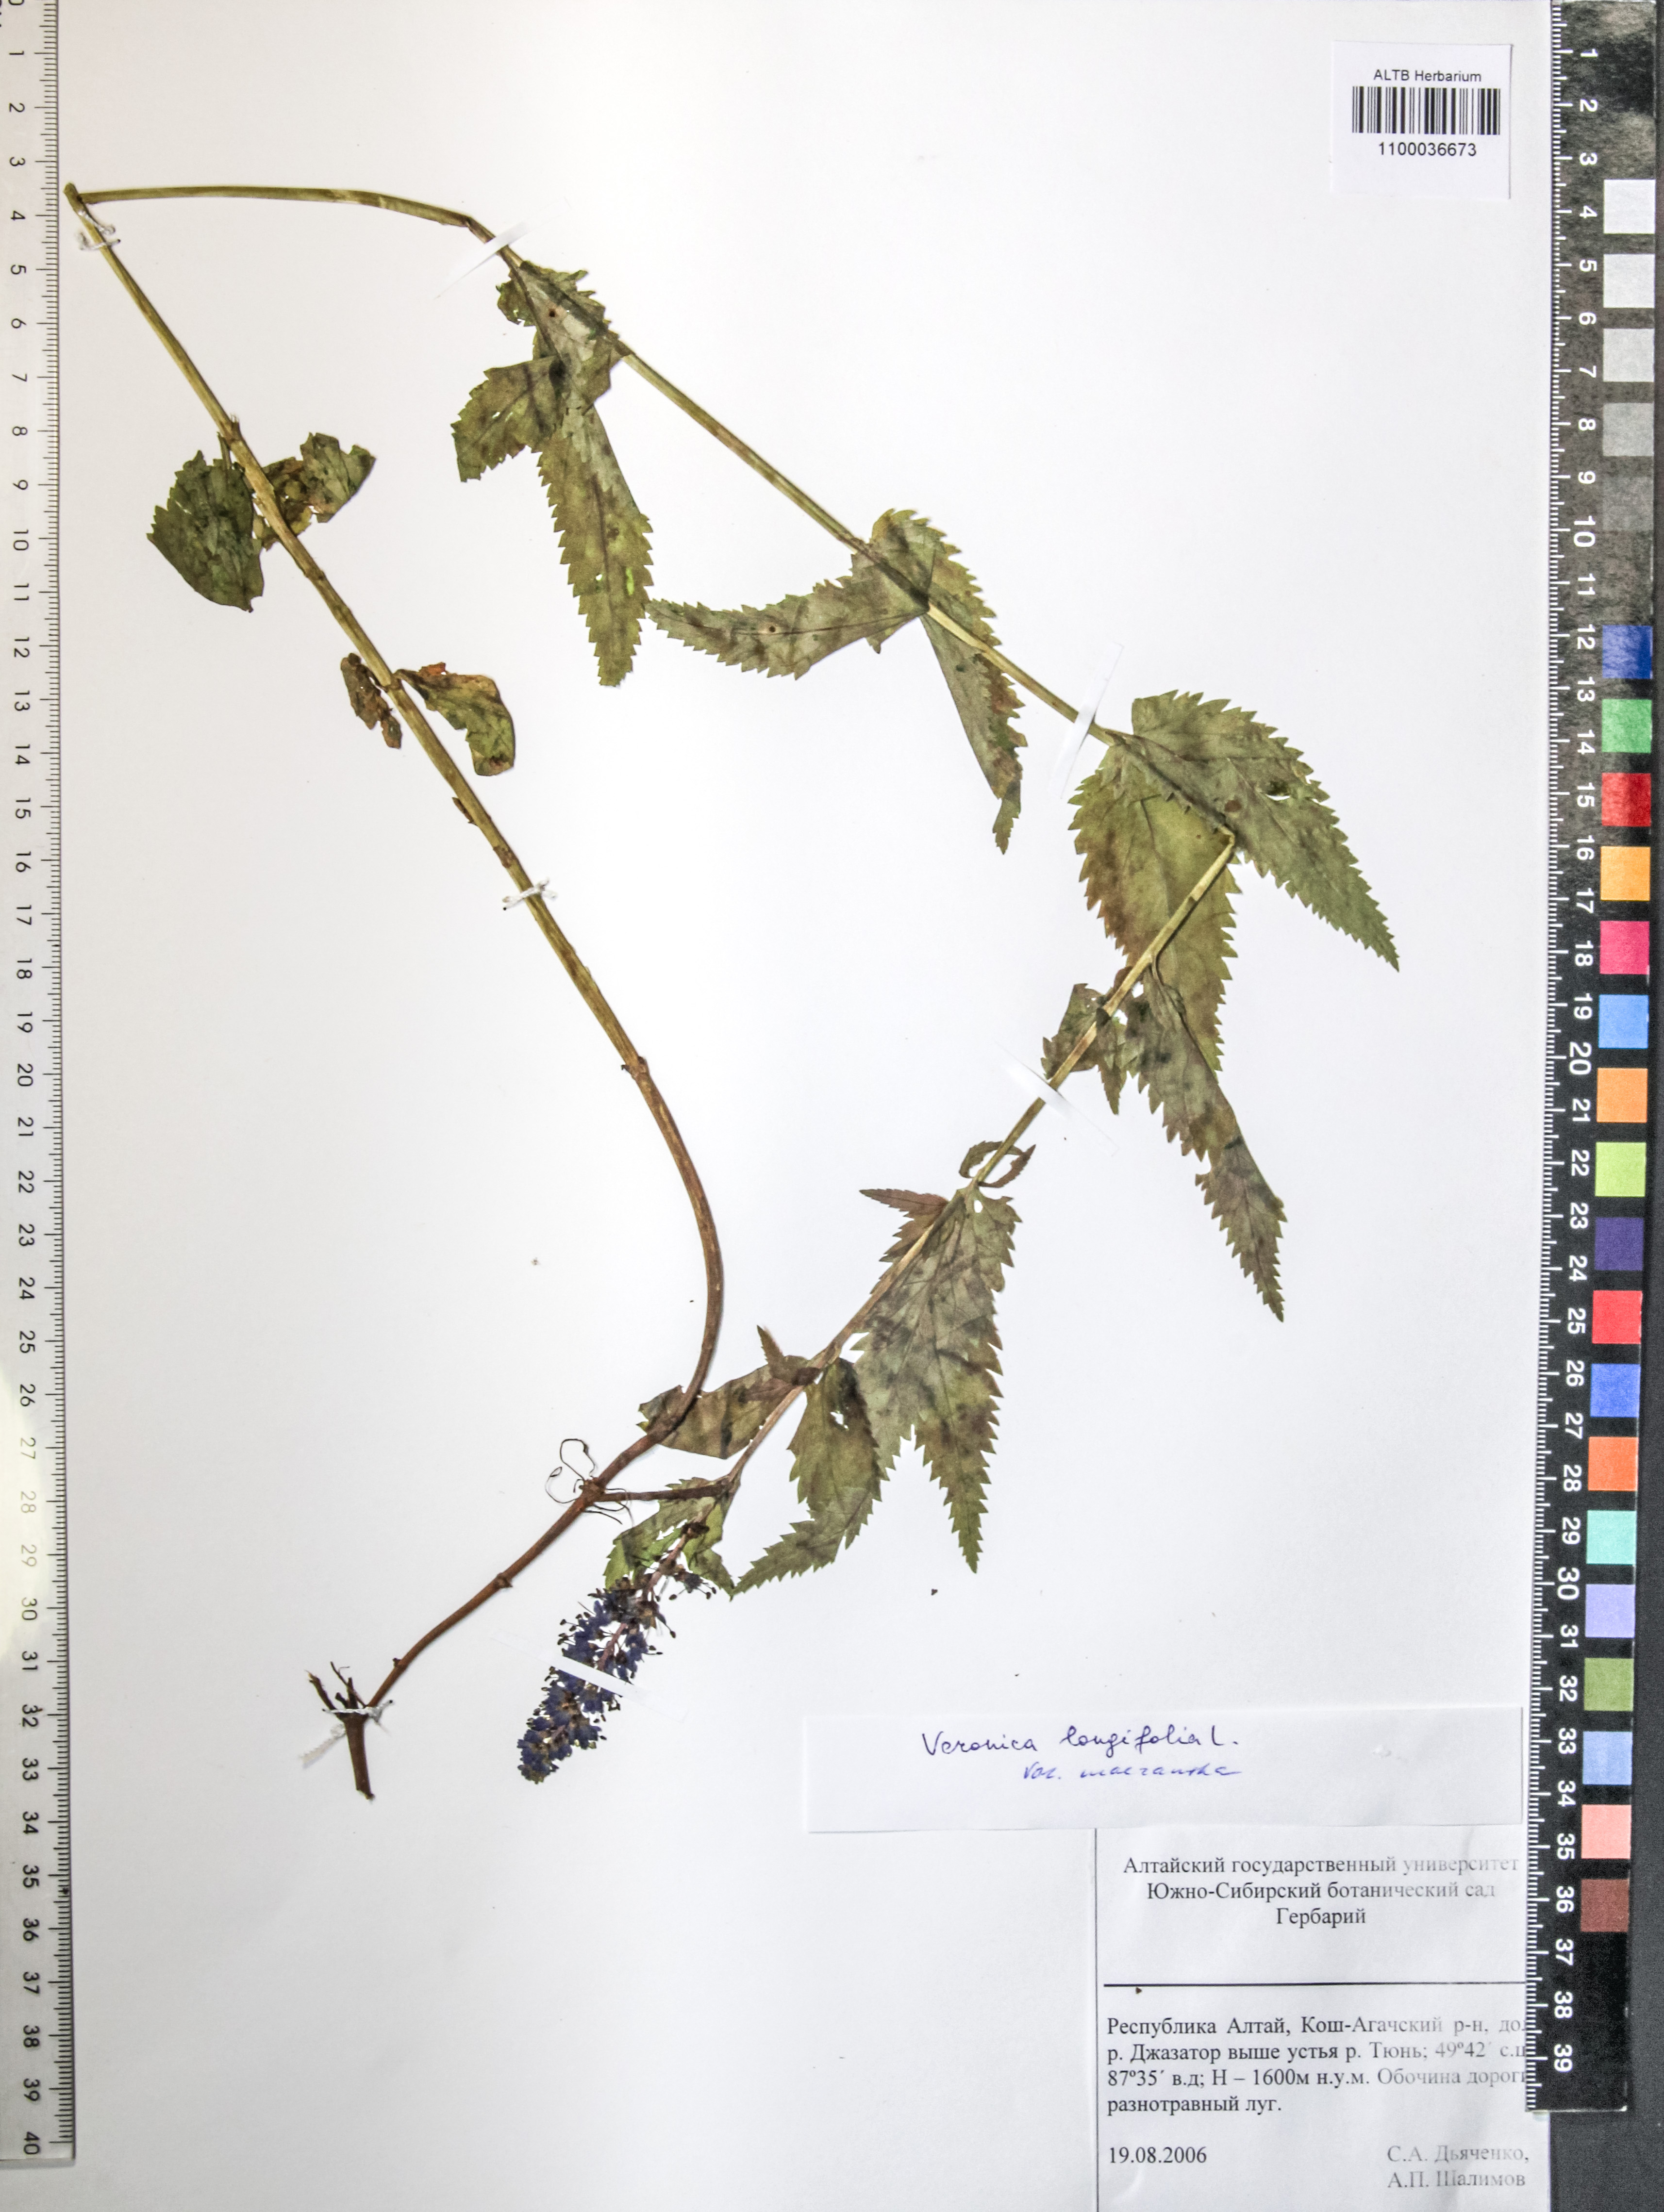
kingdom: Plantae
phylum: Tracheophyta
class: Magnoliopsida
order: Lamiales
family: Plantaginaceae
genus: Veronica
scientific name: Veronica longifolia
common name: Garden speedwell
